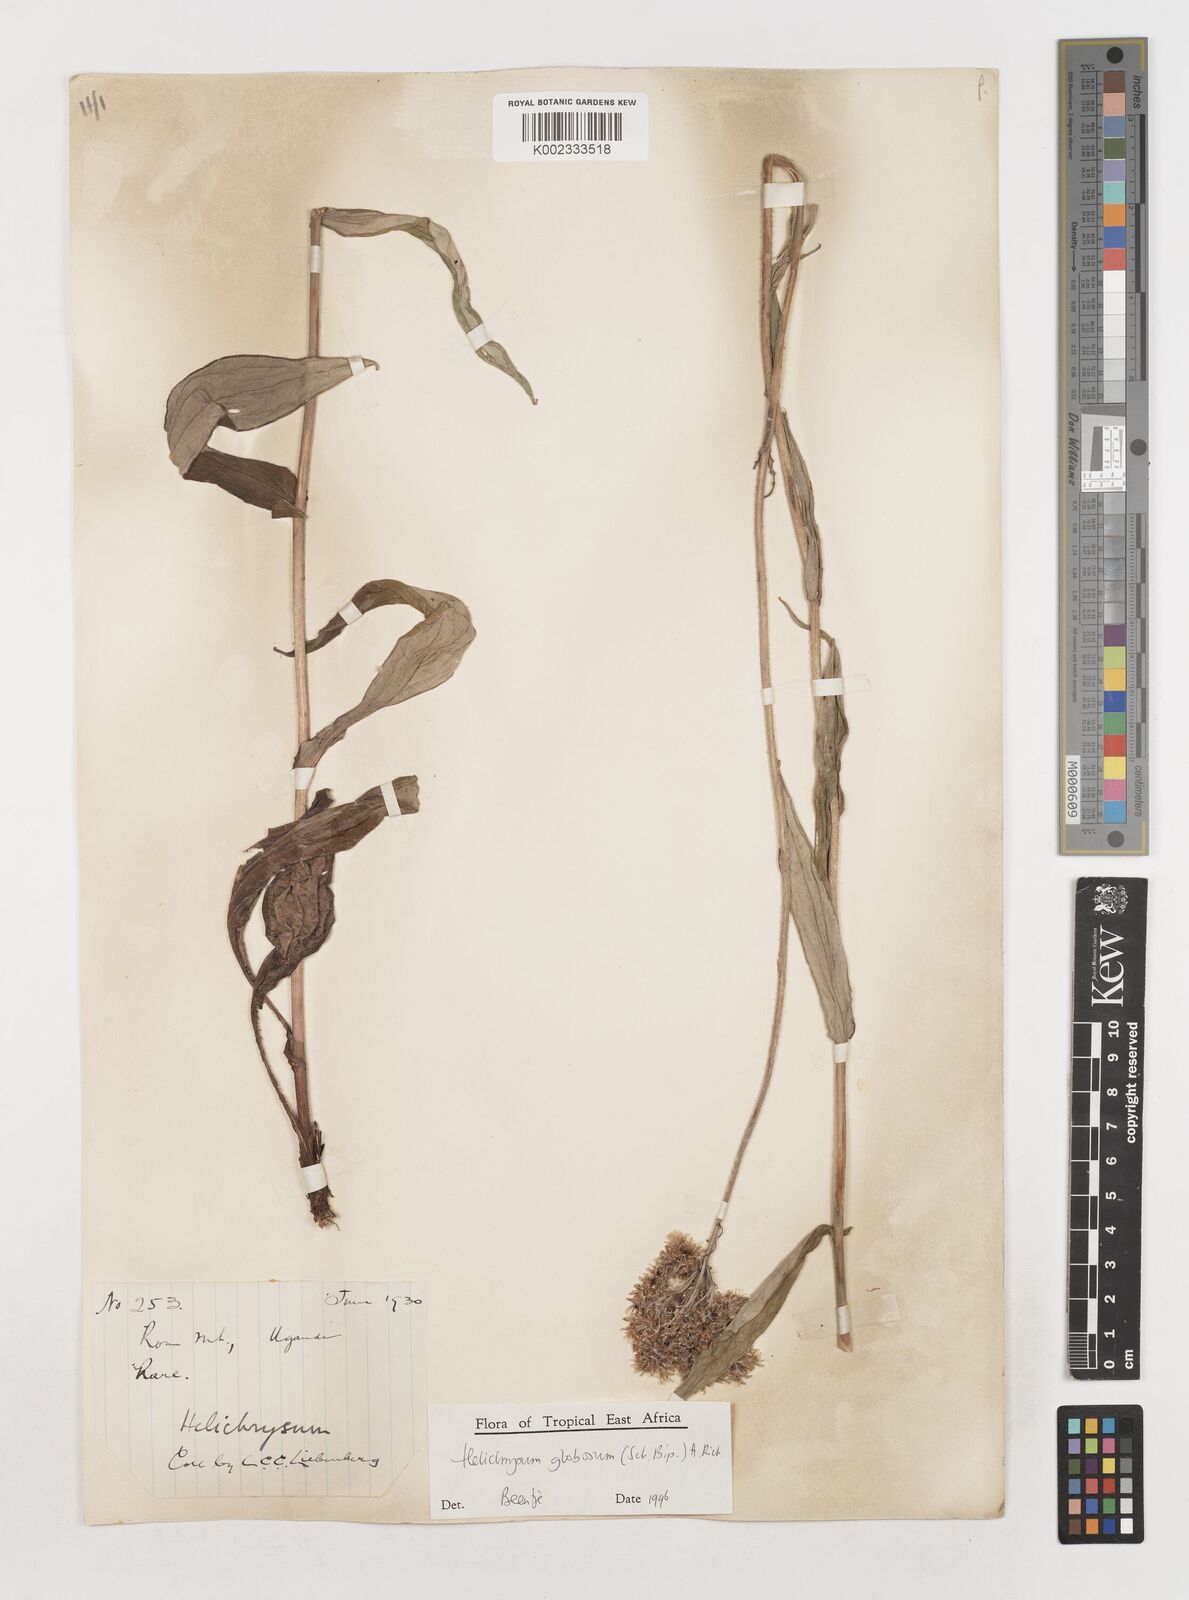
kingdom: Plantae
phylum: Tracheophyta
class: Magnoliopsida
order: Asterales
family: Asteraceae
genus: Helichrysum
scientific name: Helichrysum globosum
